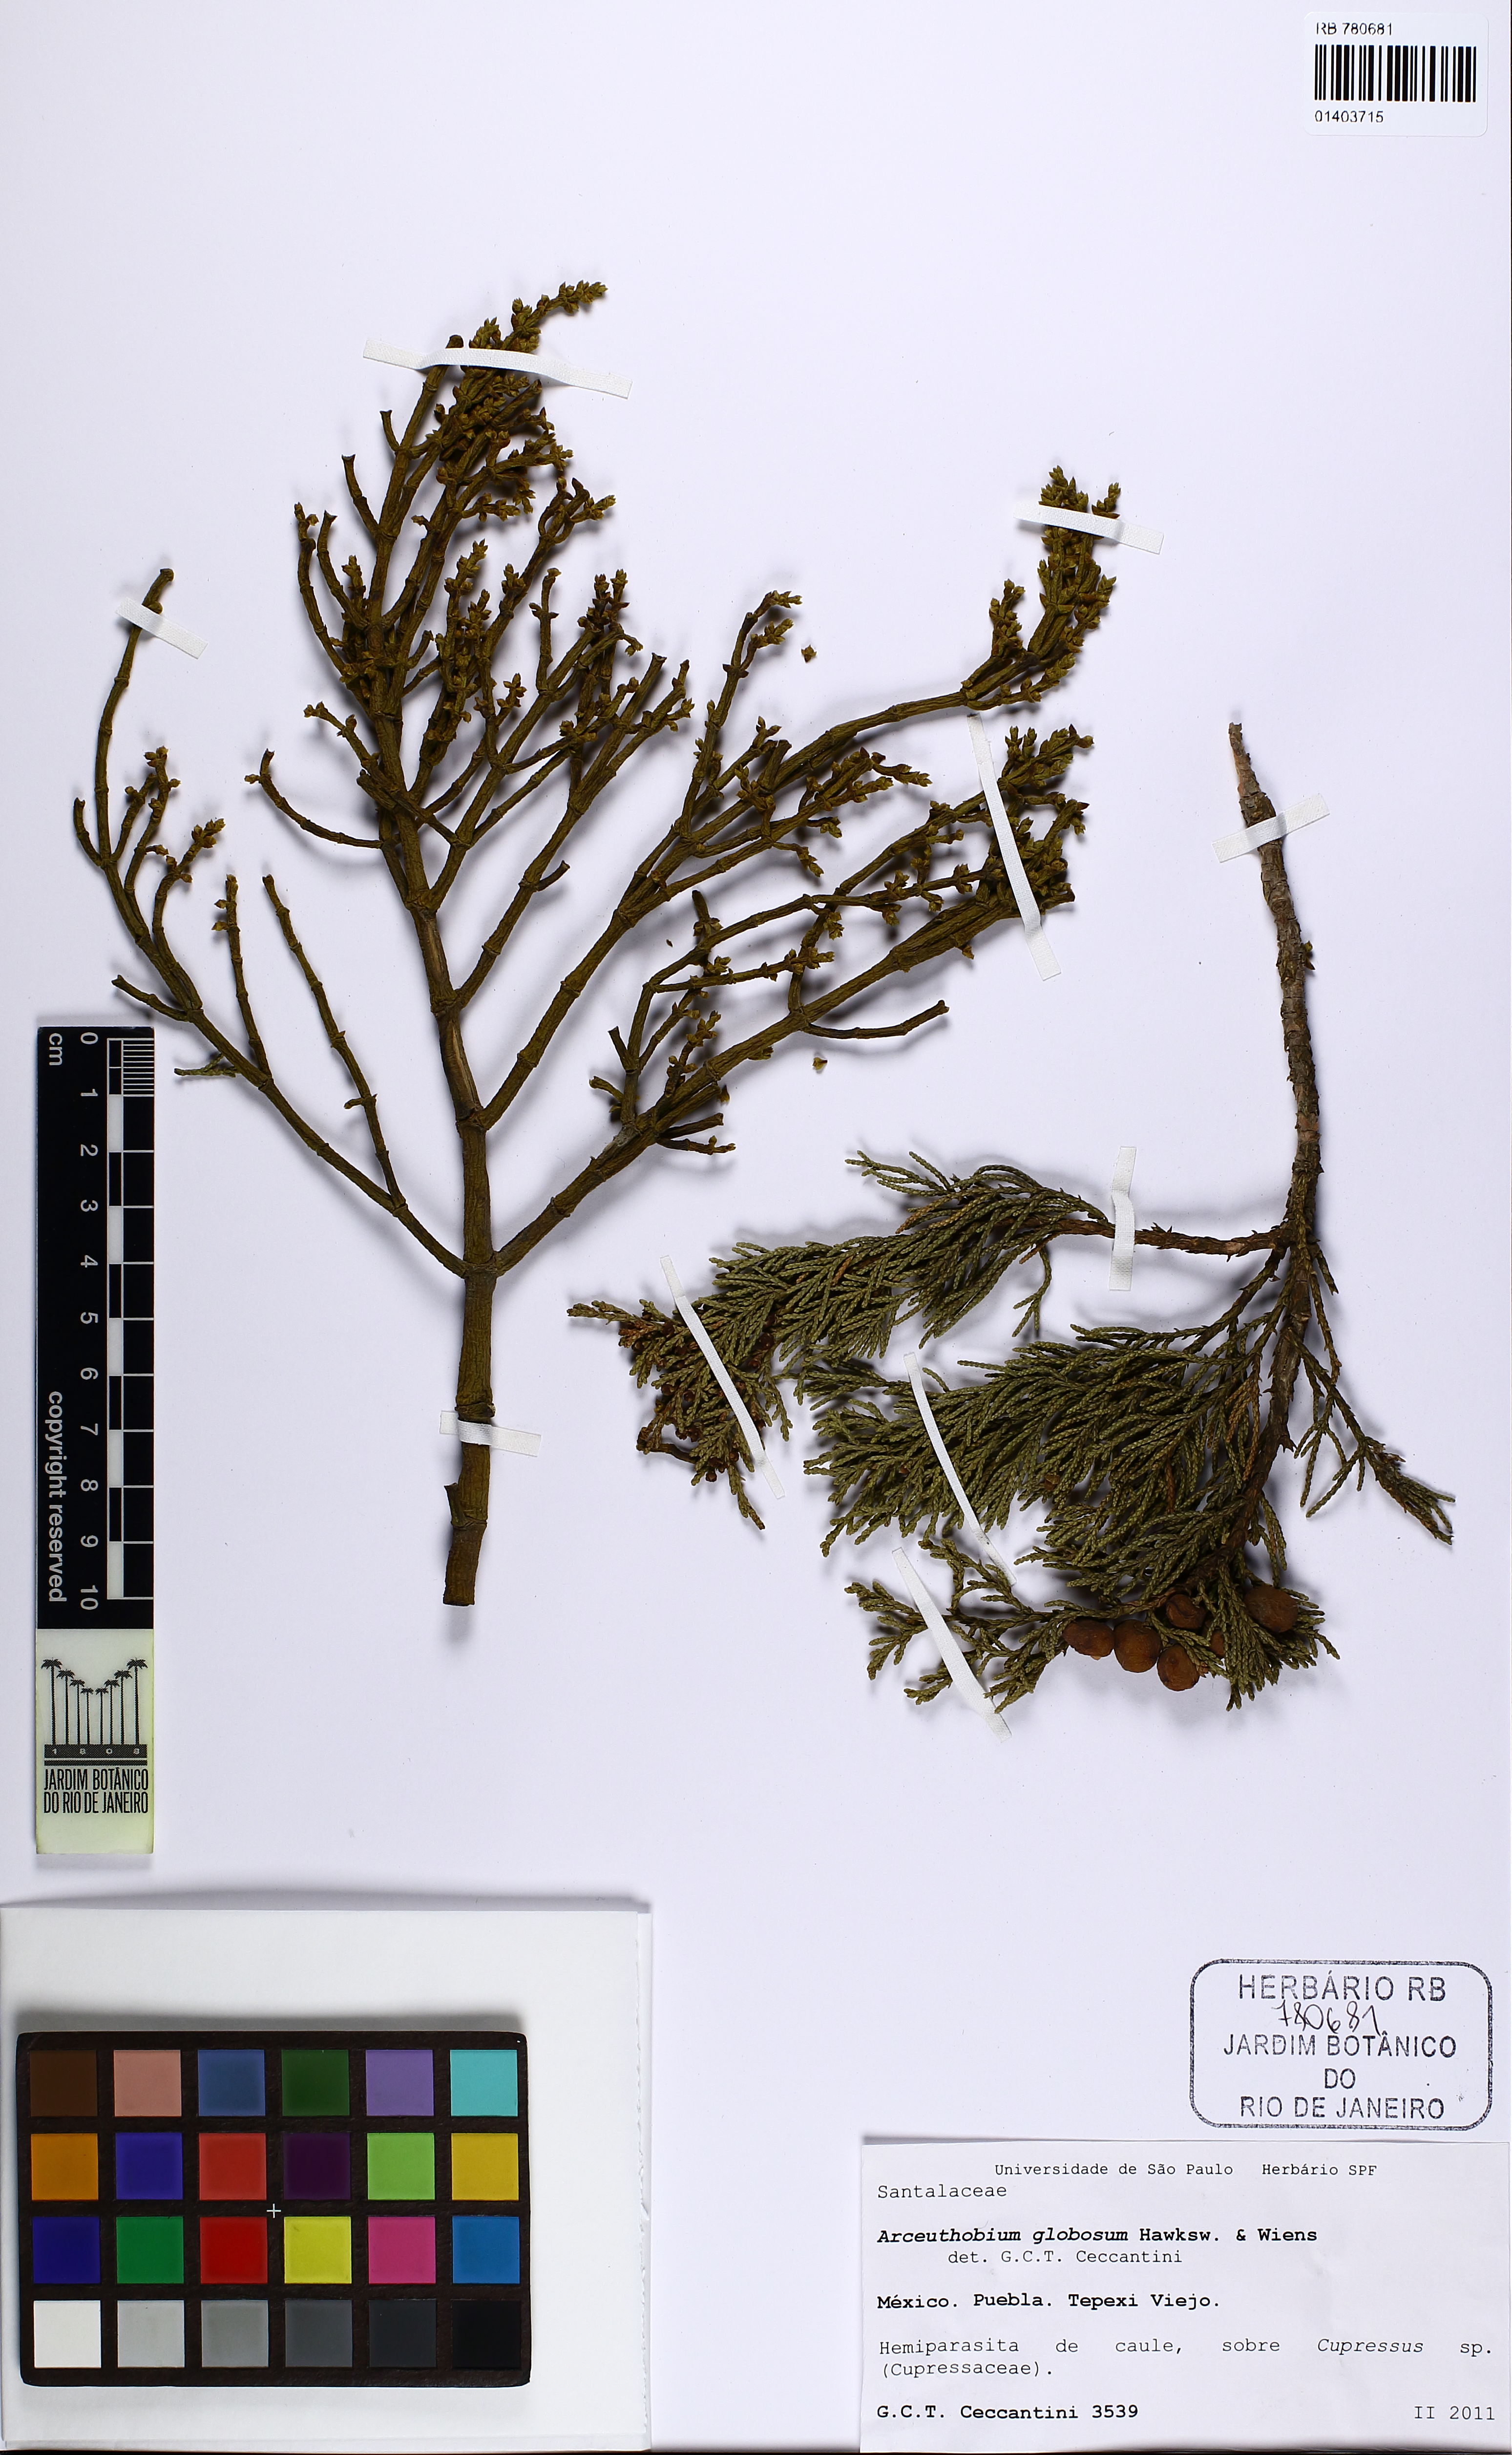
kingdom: Plantae
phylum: Tracheophyta
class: Magnoliopsida
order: Santalales
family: Viscaceae
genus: Arceuthobium
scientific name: Arceuthobium globosum
